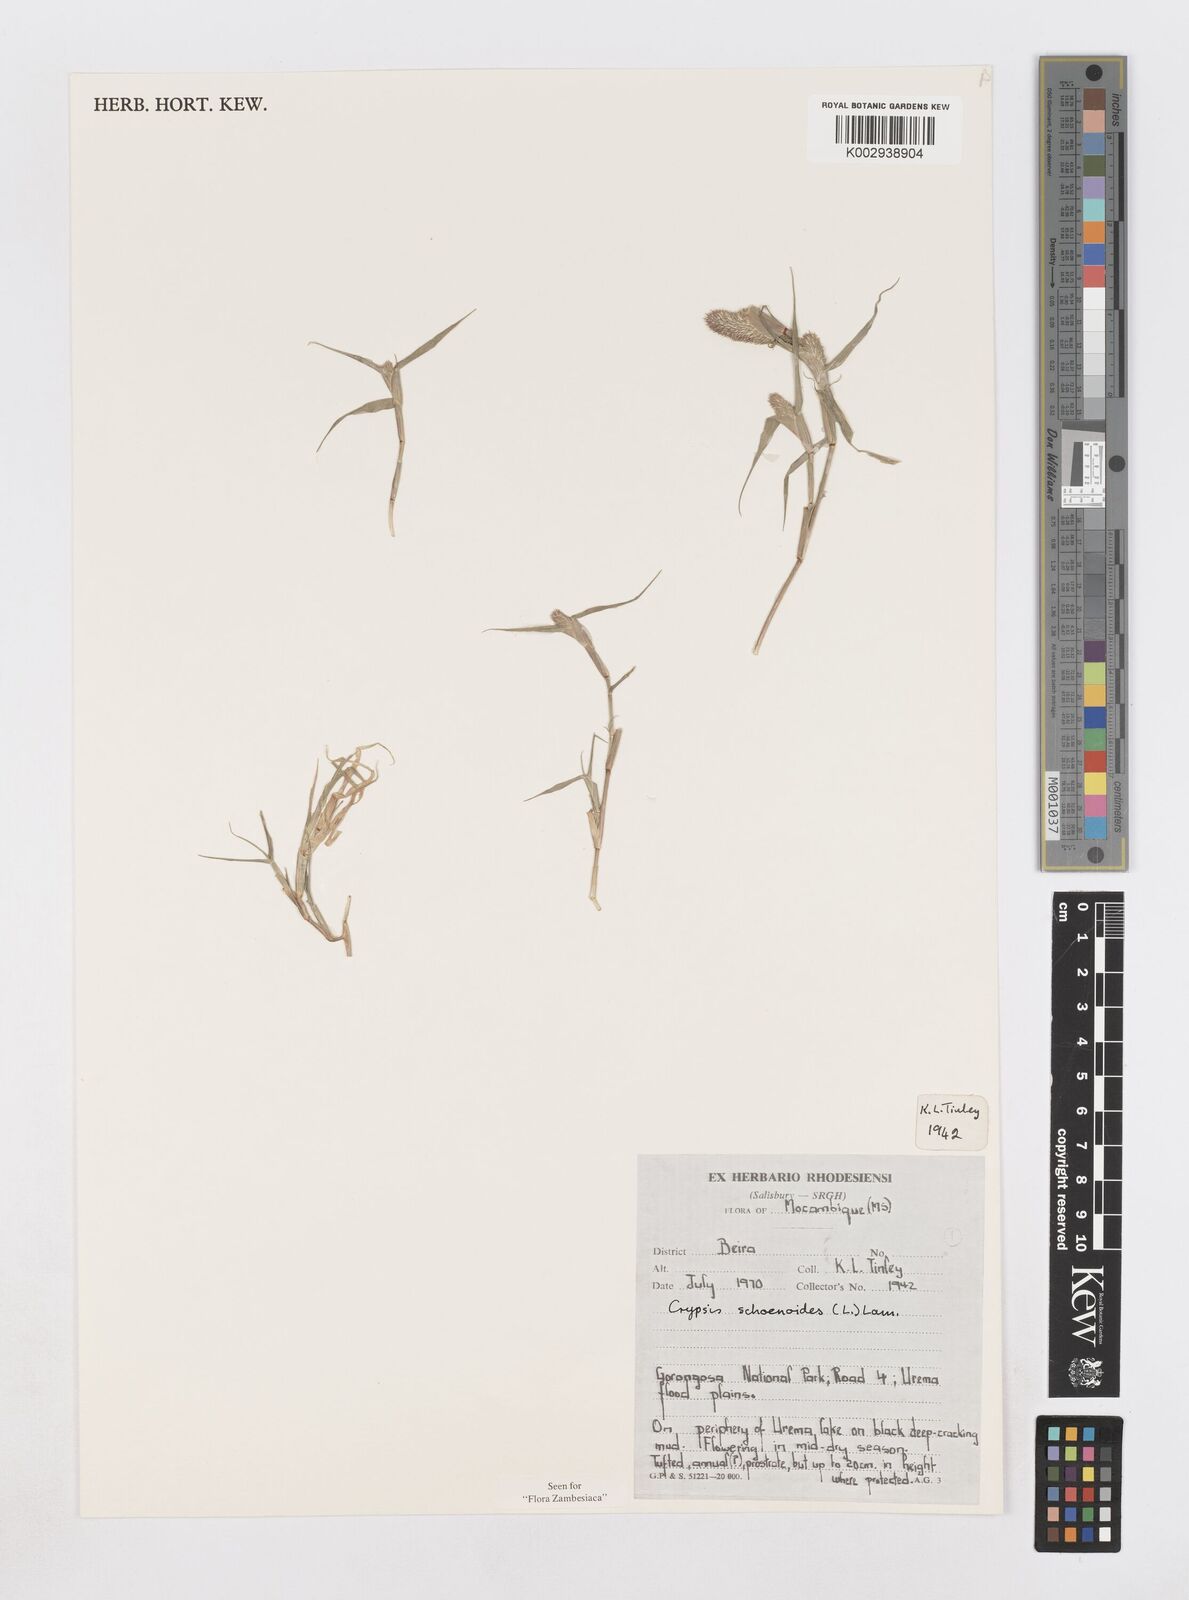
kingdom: Plantae
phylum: Tracheophyta
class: Liliopsida
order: Poales
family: Poaceae
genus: Sporobolus
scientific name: Sporobolus schoenoides
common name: Rush-like timothy
